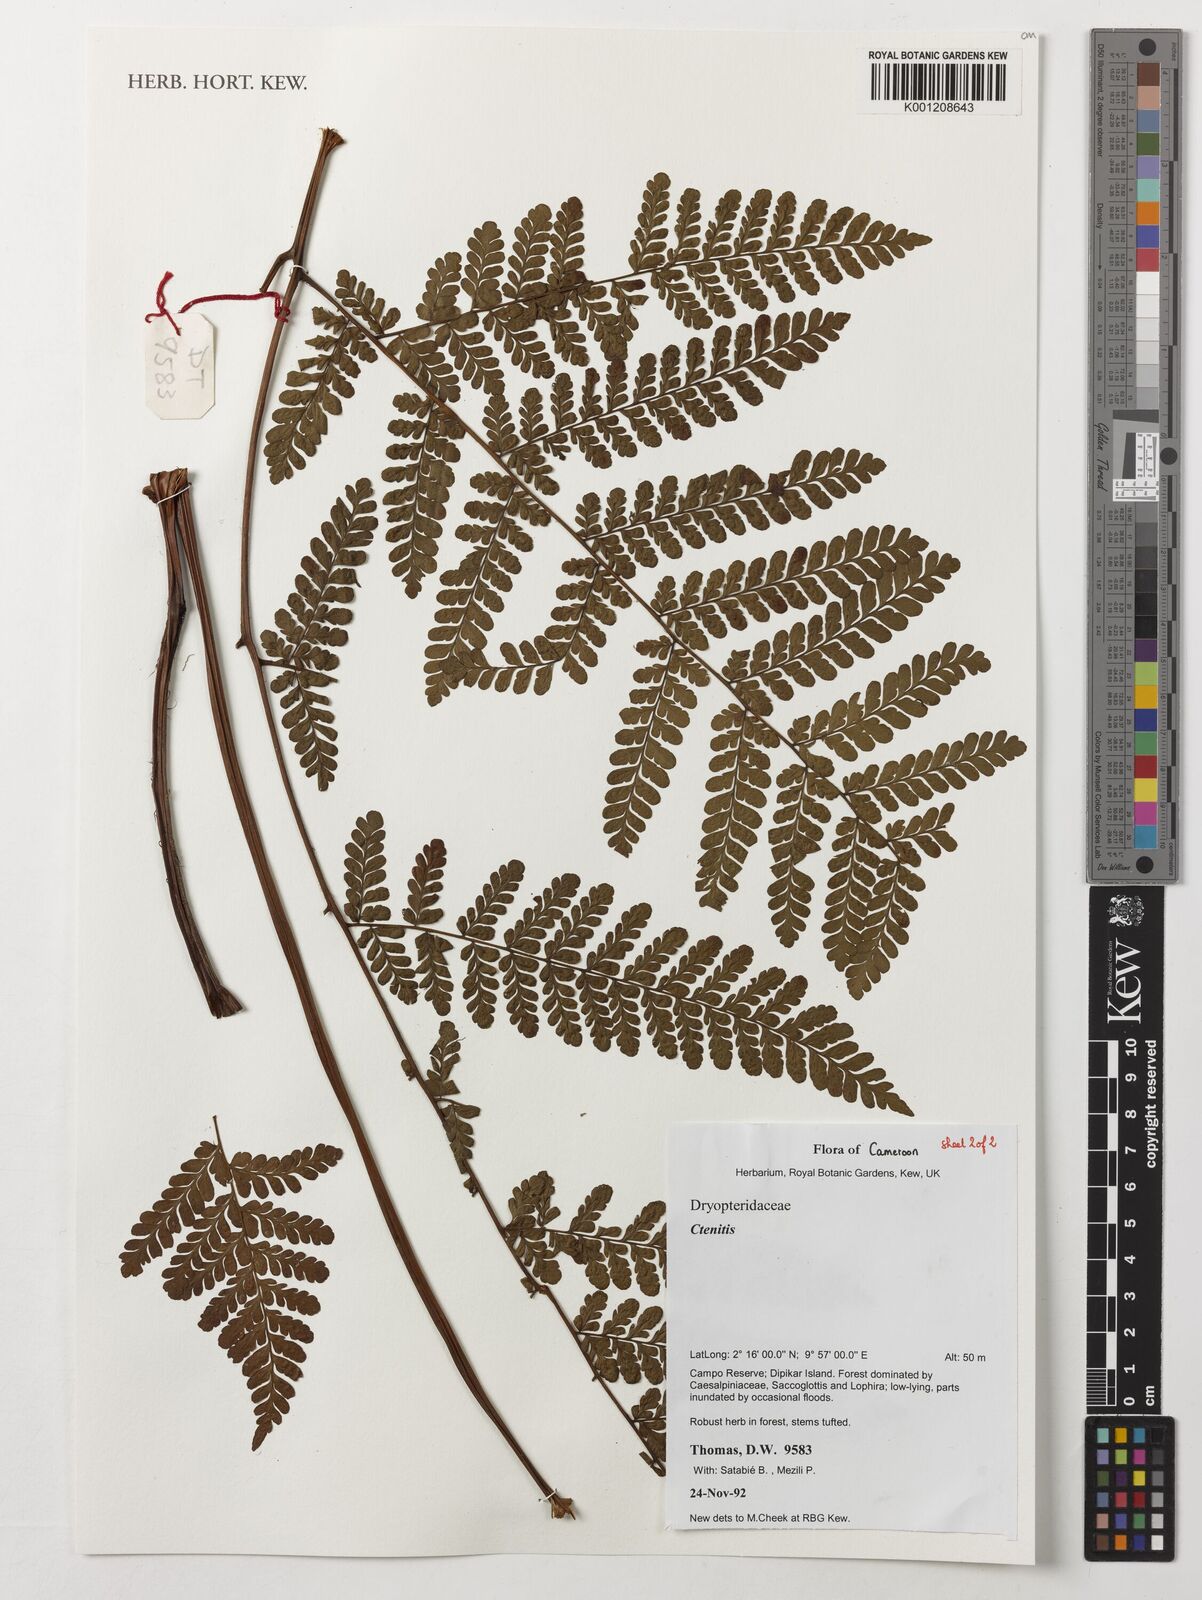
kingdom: Plantae
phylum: Tracheophyta
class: Polypodiopsida
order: Polypodiales
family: Dryopteridaceae
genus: Ctenitis
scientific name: Ctenitis
